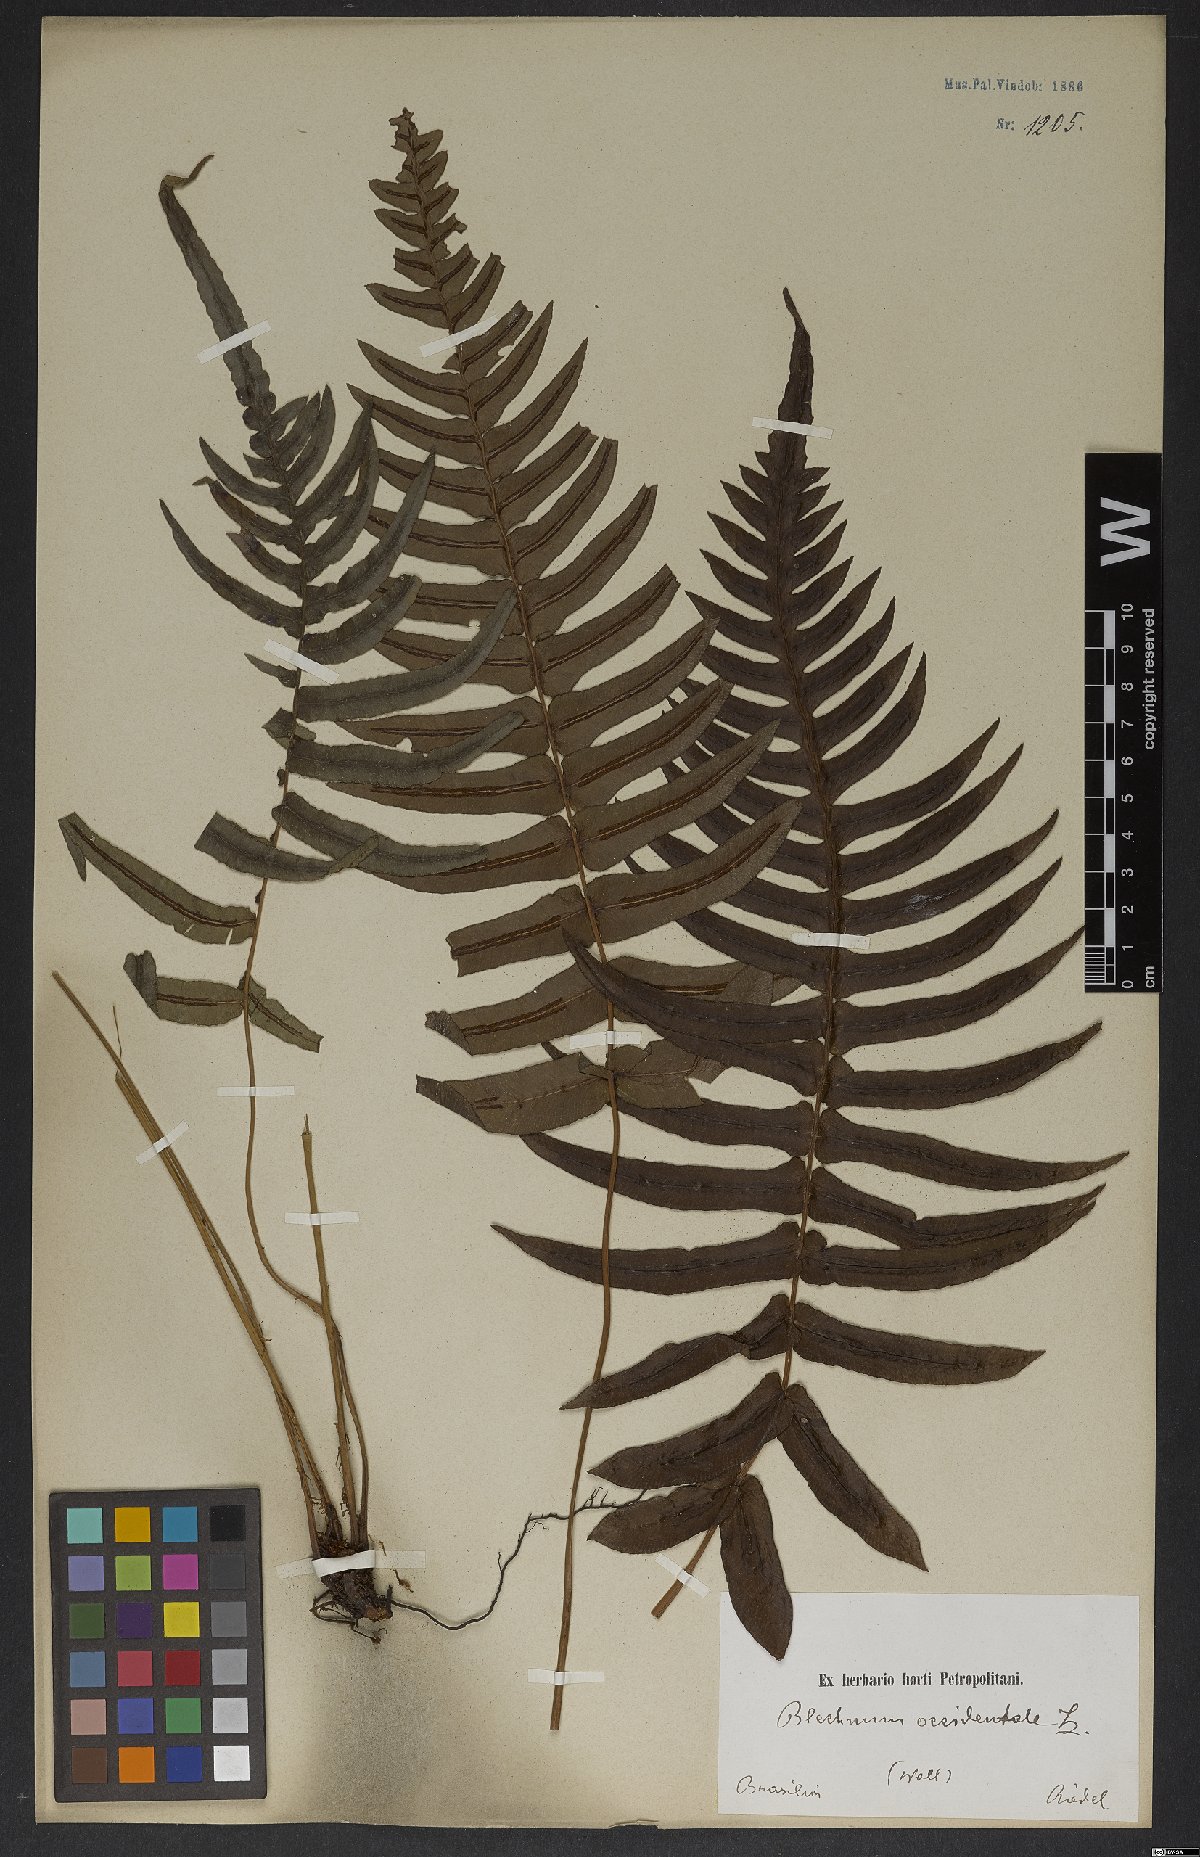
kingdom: Plantae
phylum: Tracheophyta
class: Polypodiopsida
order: Polypodiales
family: Blechnaceae
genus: Blechnum
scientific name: Blechnum occidentale
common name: Hammock fern
